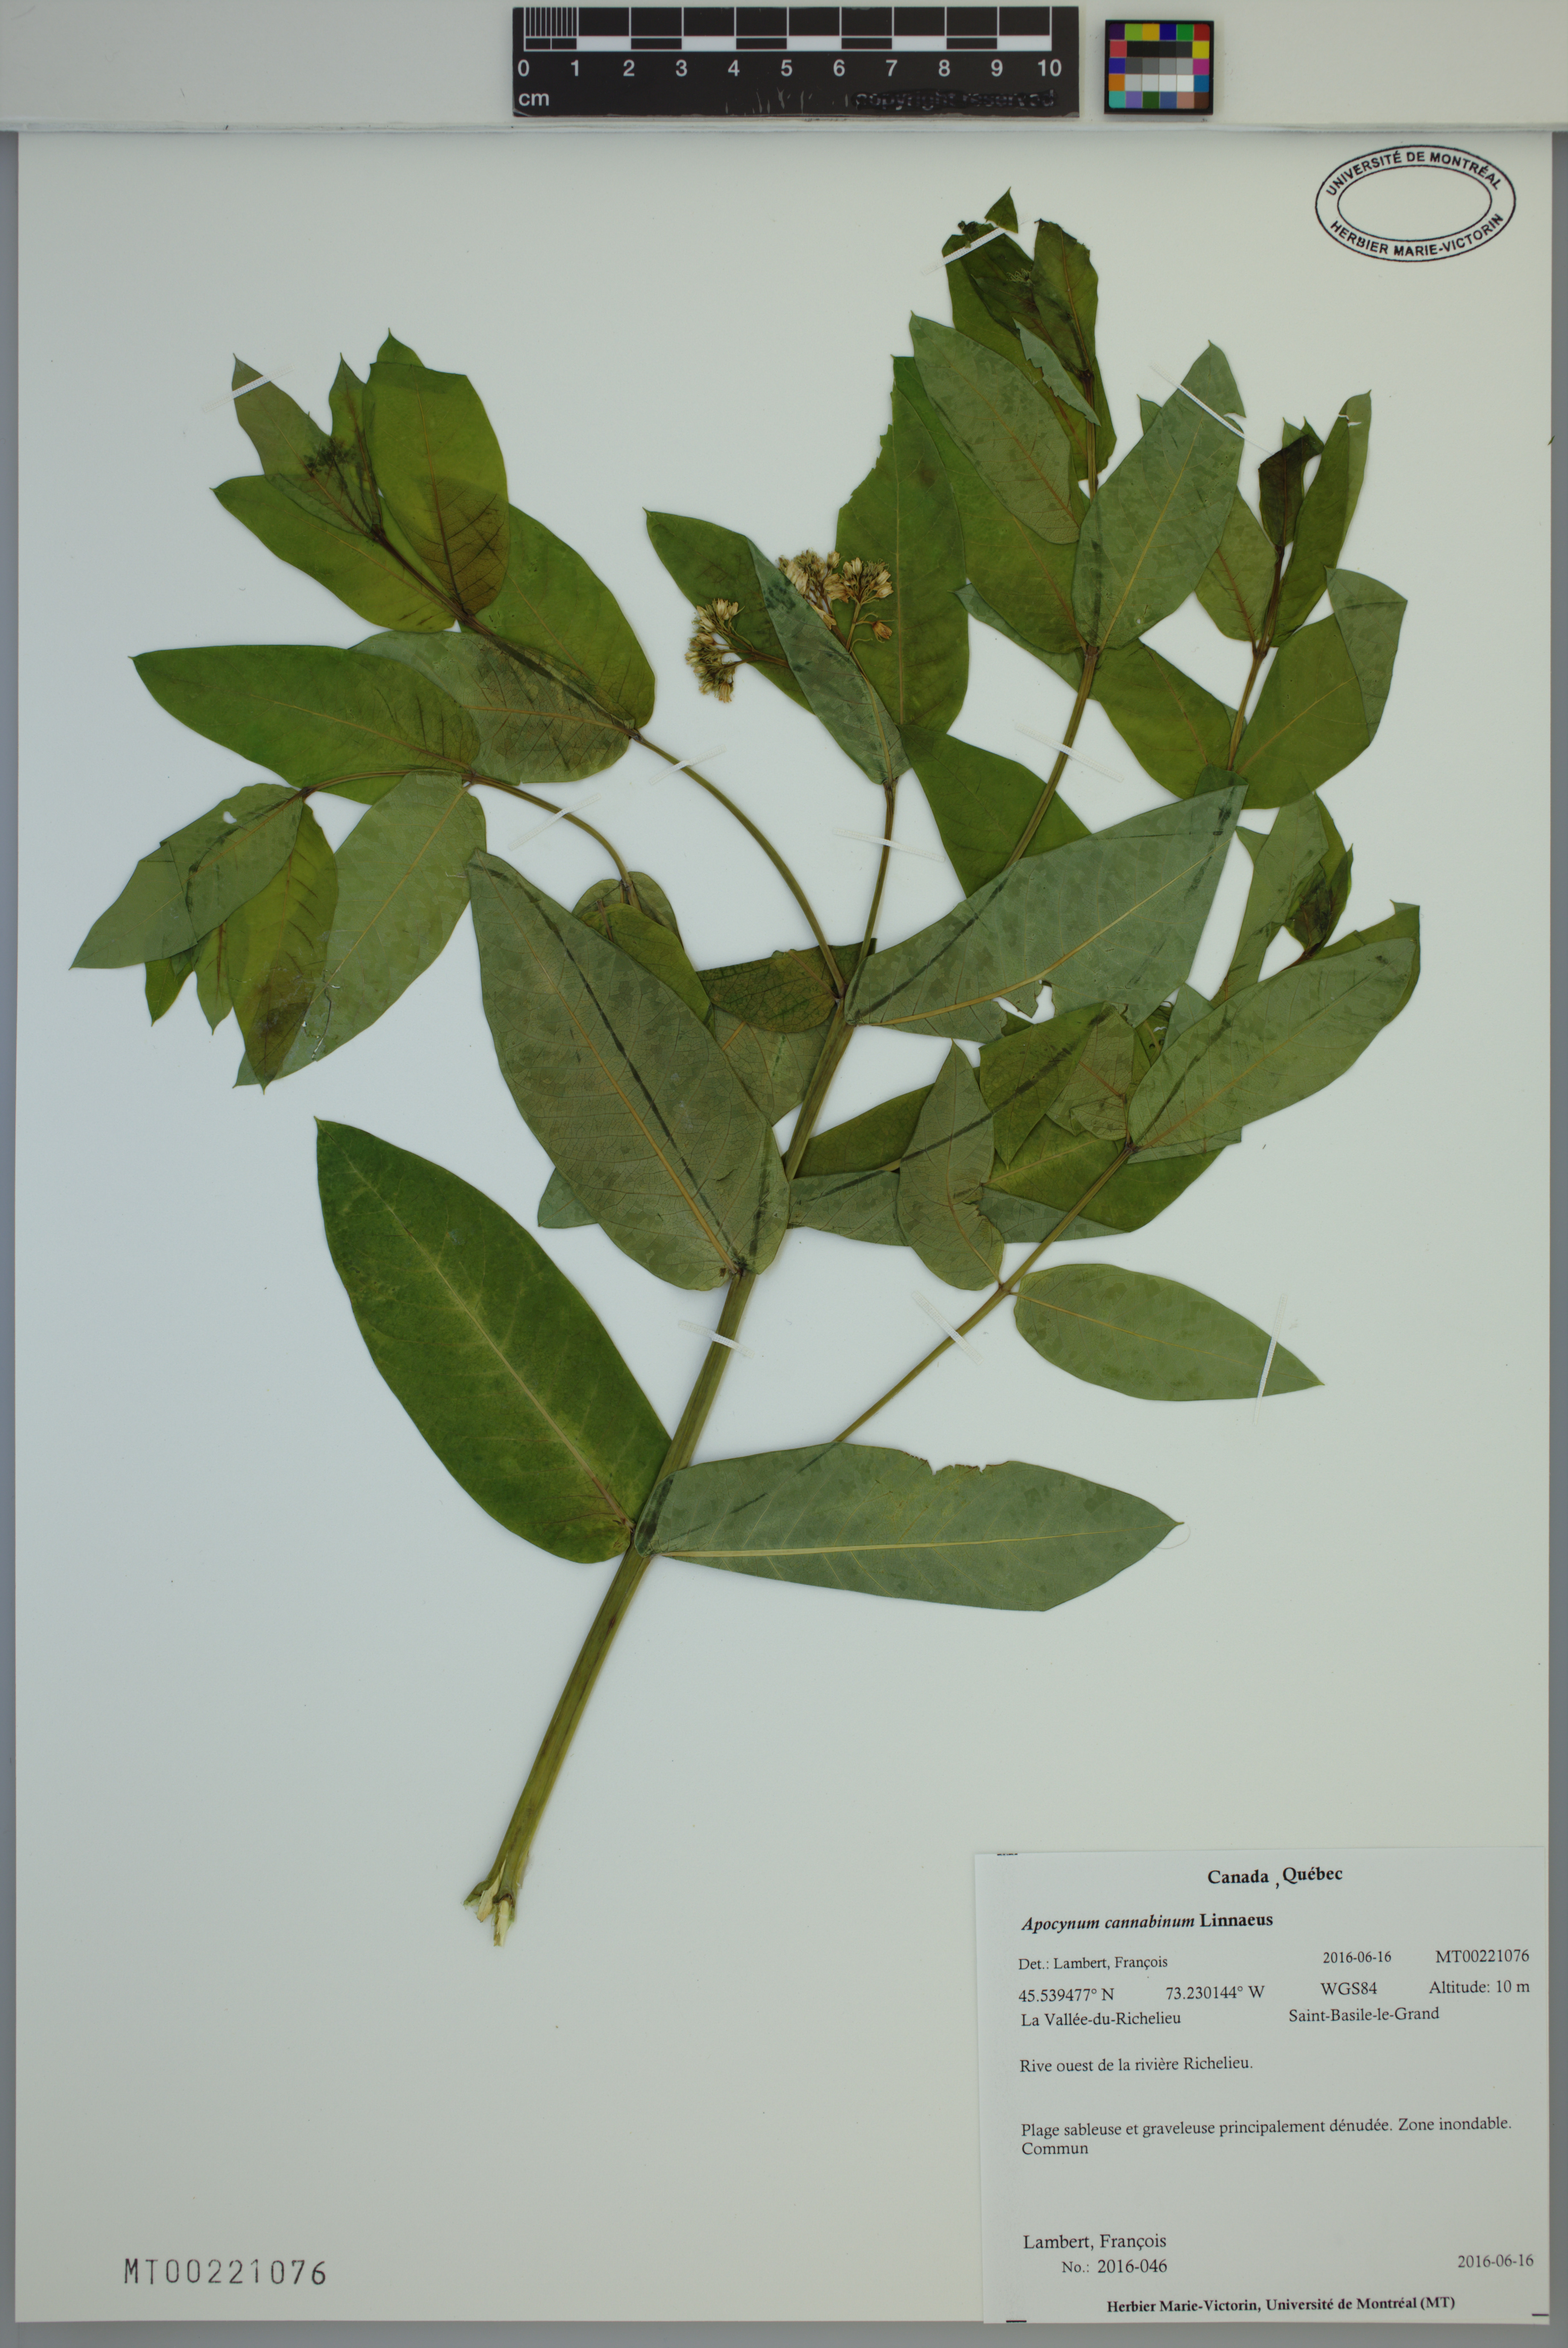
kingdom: Plantae
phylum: Tracheophyta
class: Magnoliopsida
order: Gentianales
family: Apocynaceae
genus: Apocynum
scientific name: Apocynum cannabinum
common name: Hemp dogbane
